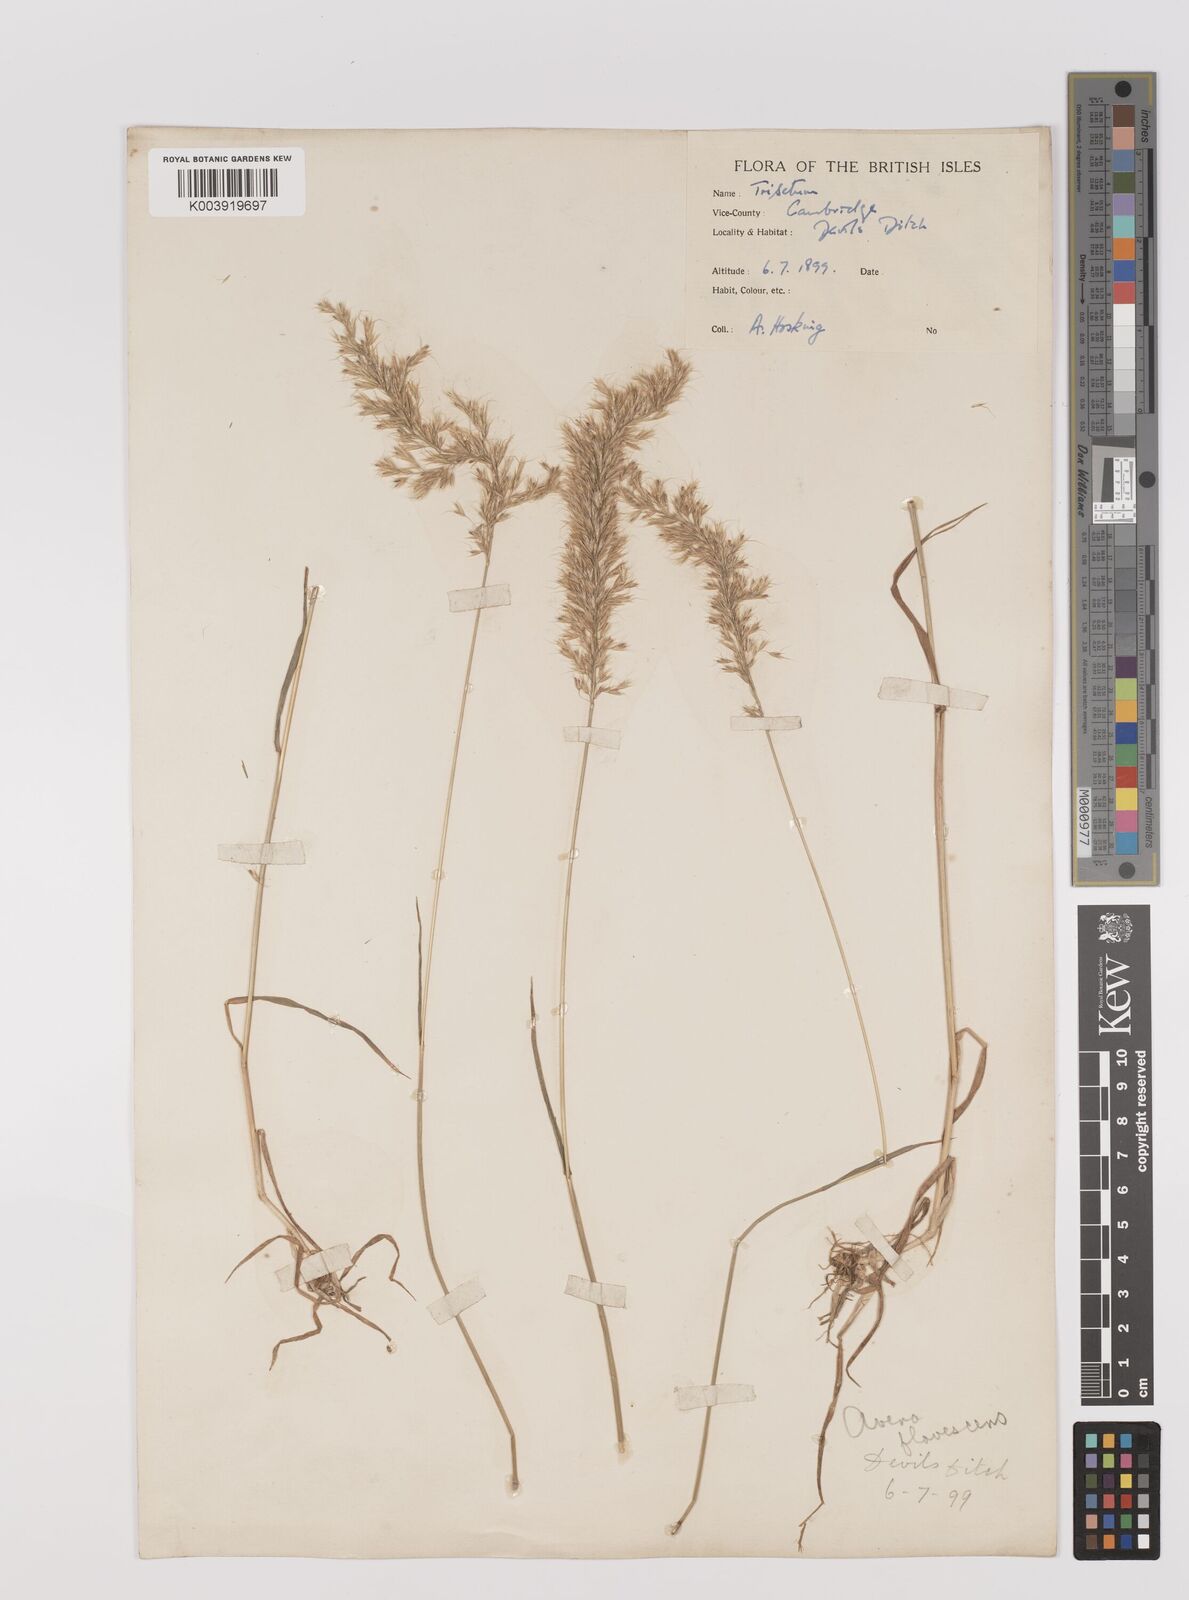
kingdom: Plantae
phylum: Tracheophyta
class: Liliopsida
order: Poales
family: Poaceae
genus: Trisetum
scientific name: Trisetum flavescens
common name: Yellow oat-grass
